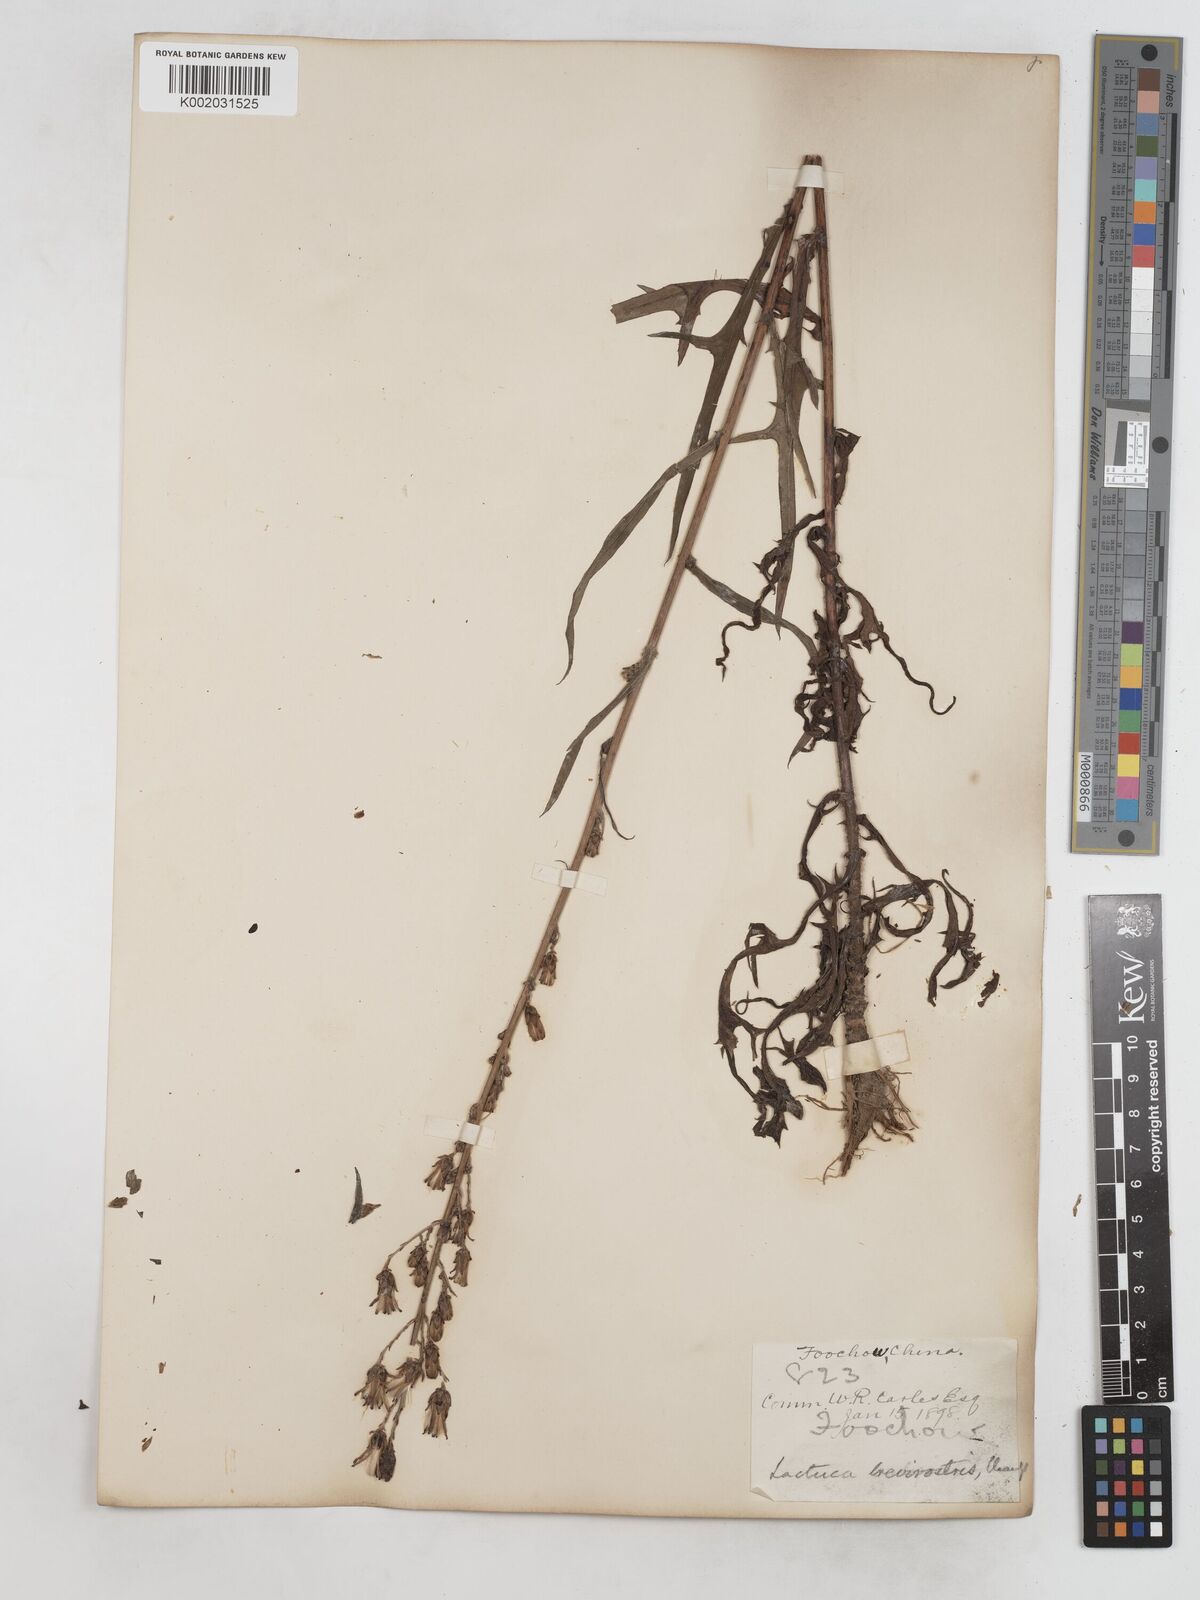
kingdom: Plantae
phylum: Tracheophyta
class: Magnoliopsida
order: Asterales
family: Asteraceae
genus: Lactuca
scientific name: Lactuca indica
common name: Wild lettuce
